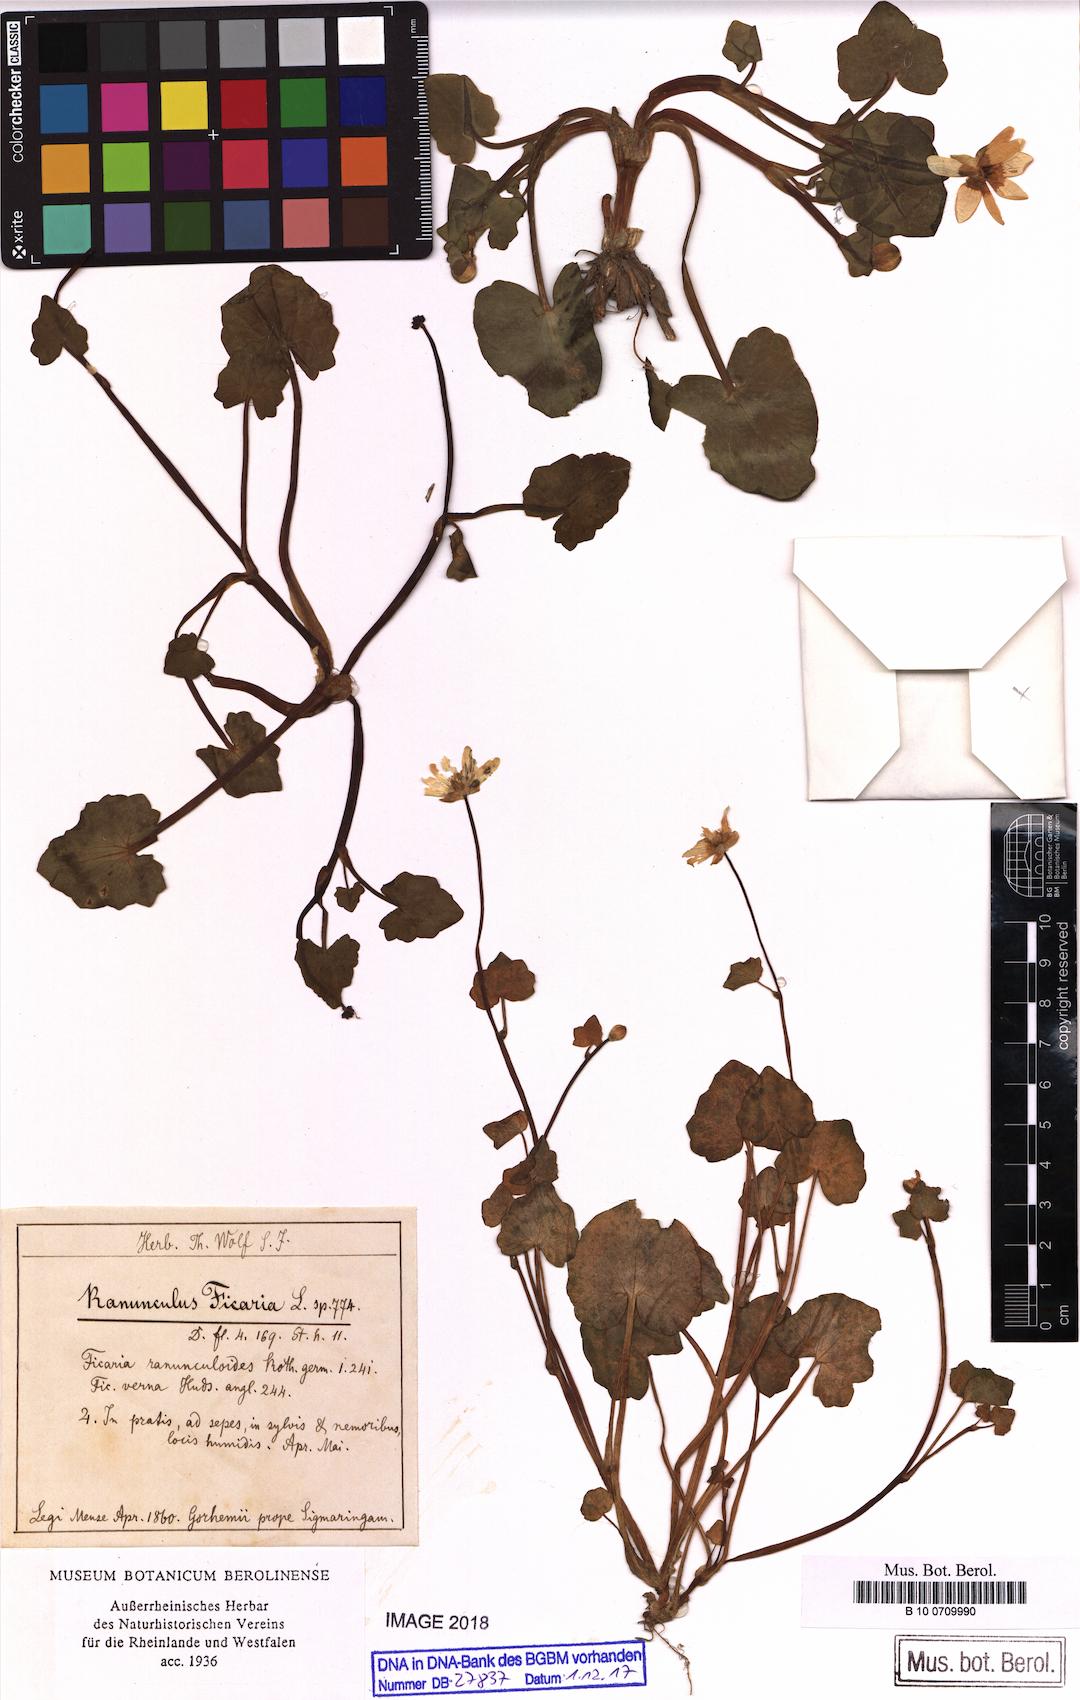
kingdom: Plantae
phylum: Tracheophyta
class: Magnoliopsida
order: Ranunculales
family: Ranunculaceae
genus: Ficaria
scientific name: Ficaria verna
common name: Lesser celandine
